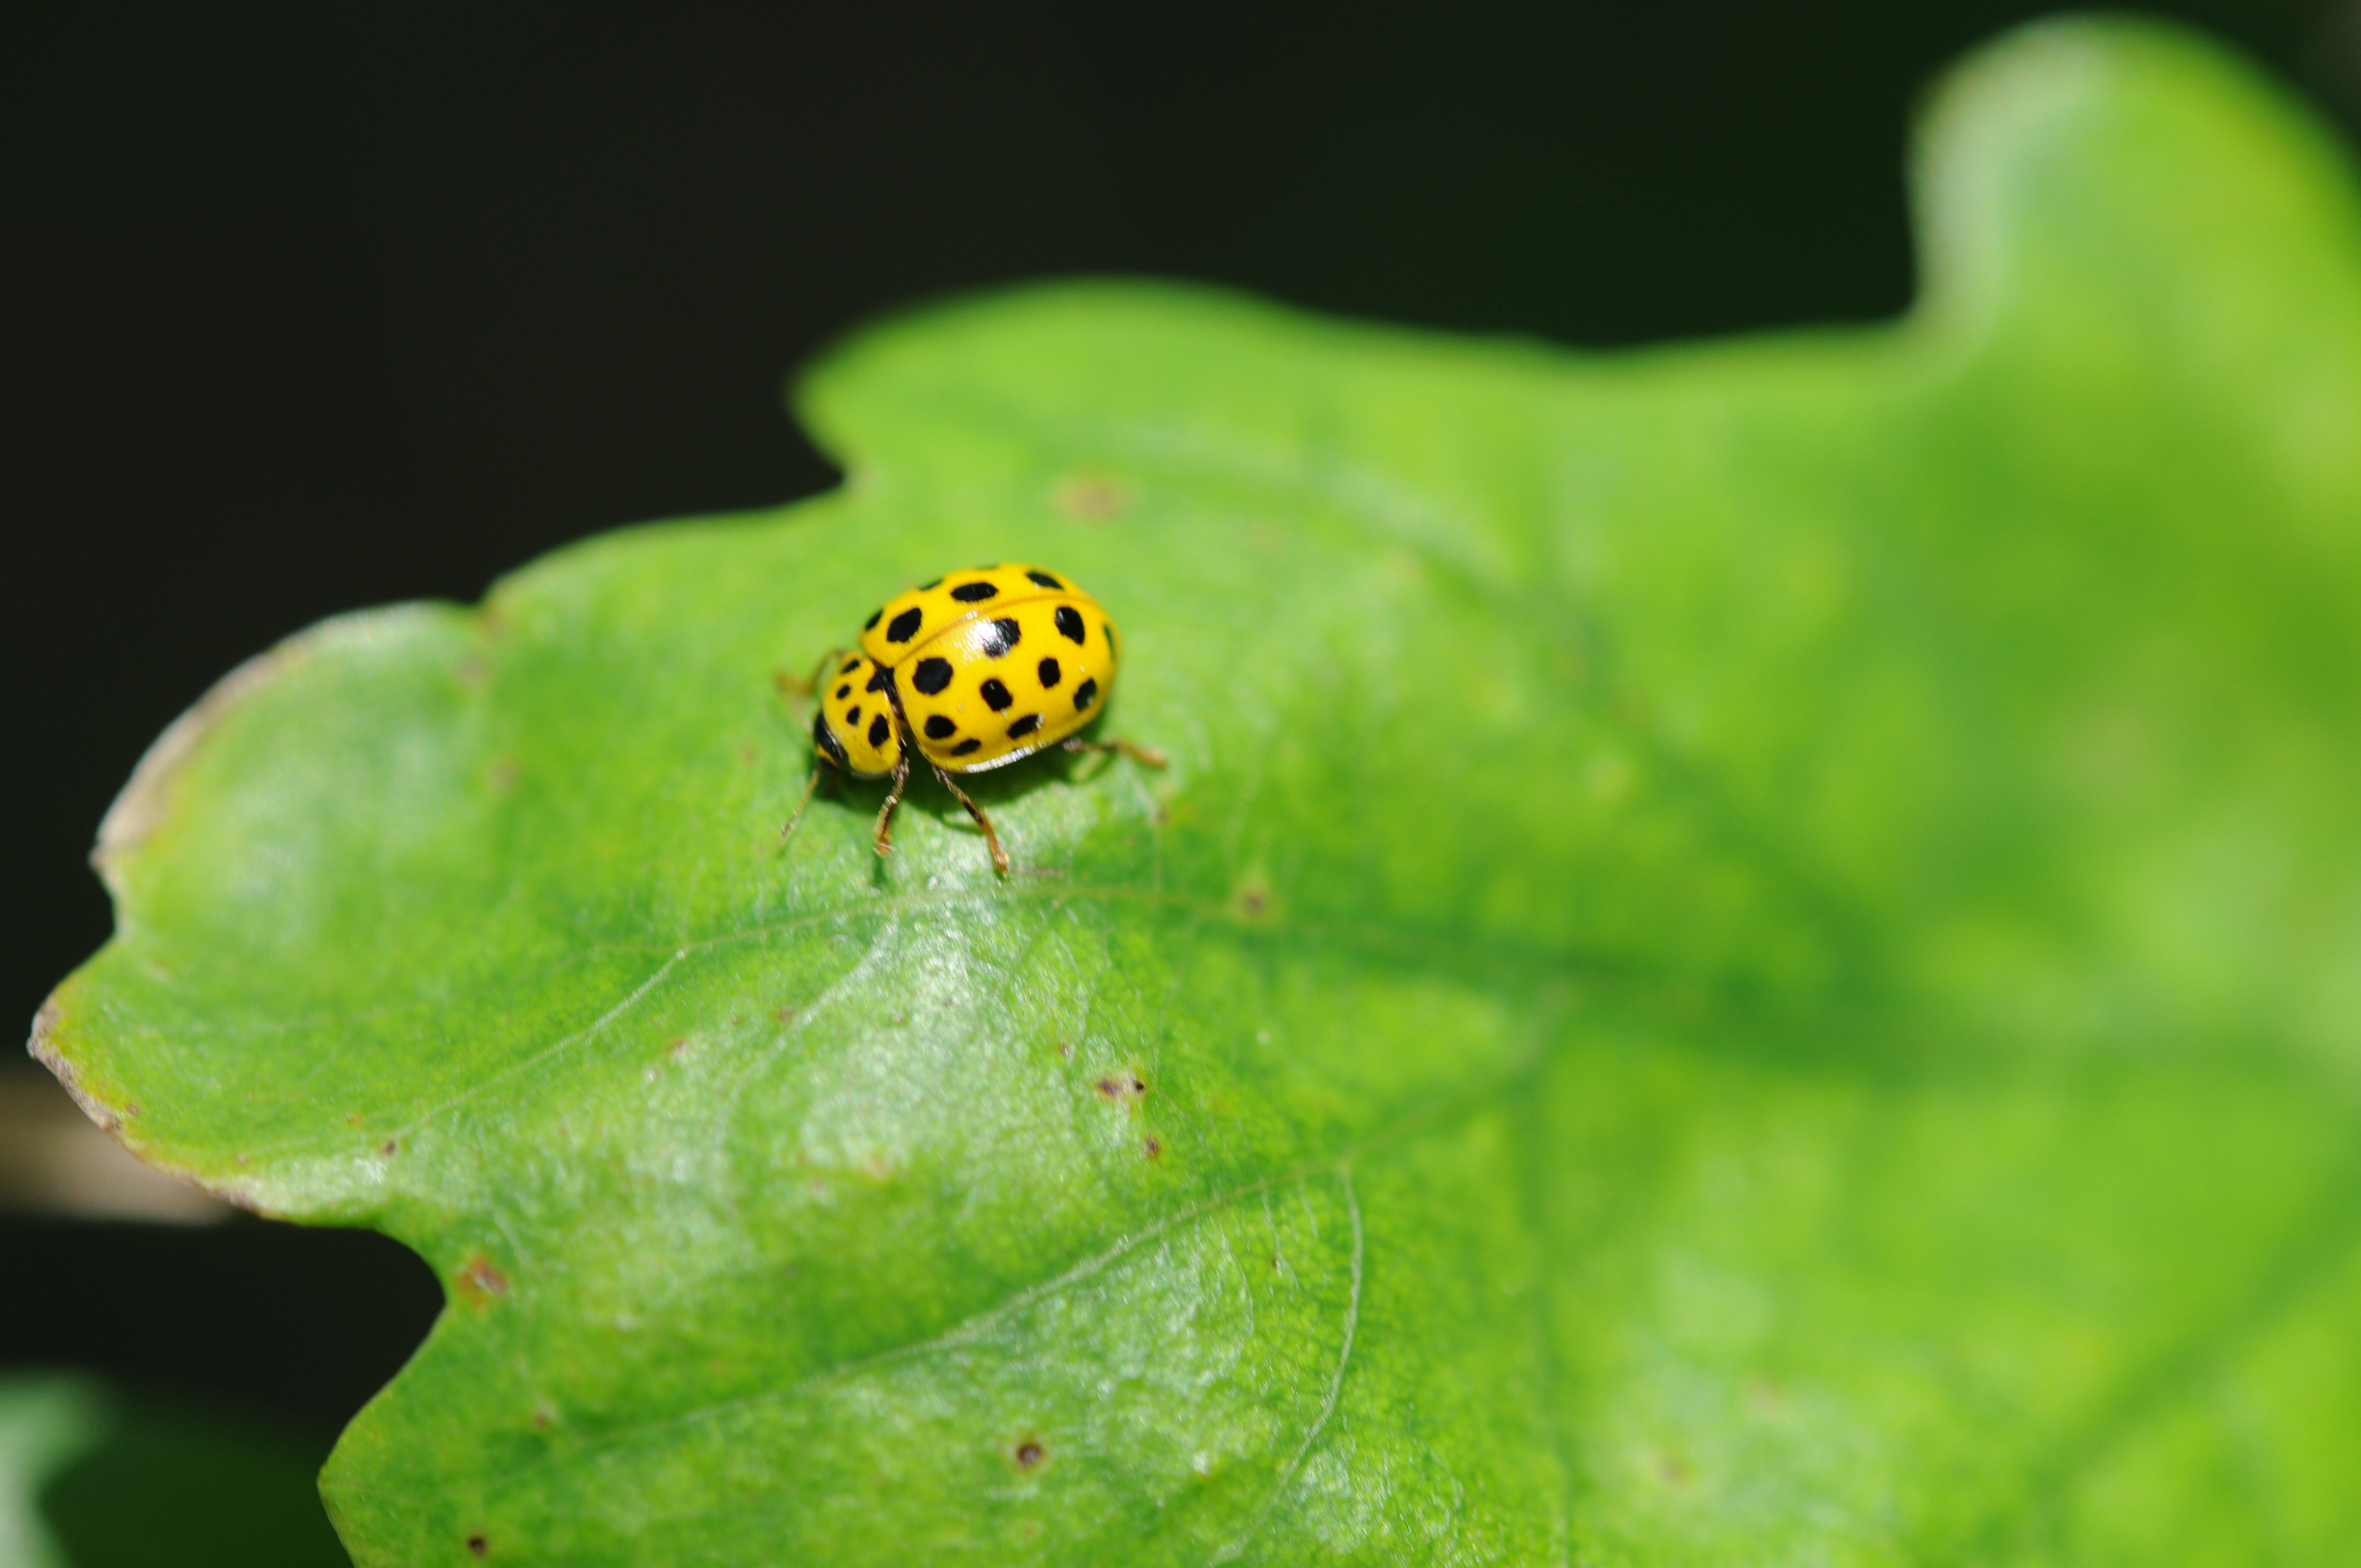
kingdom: Animalia
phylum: Arthropoda
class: Insecta
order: Coleoptera
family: Coccinellidae
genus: Psyllobora
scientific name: Psyllobora vigintiduopunctata
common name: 22-spot ladybird
